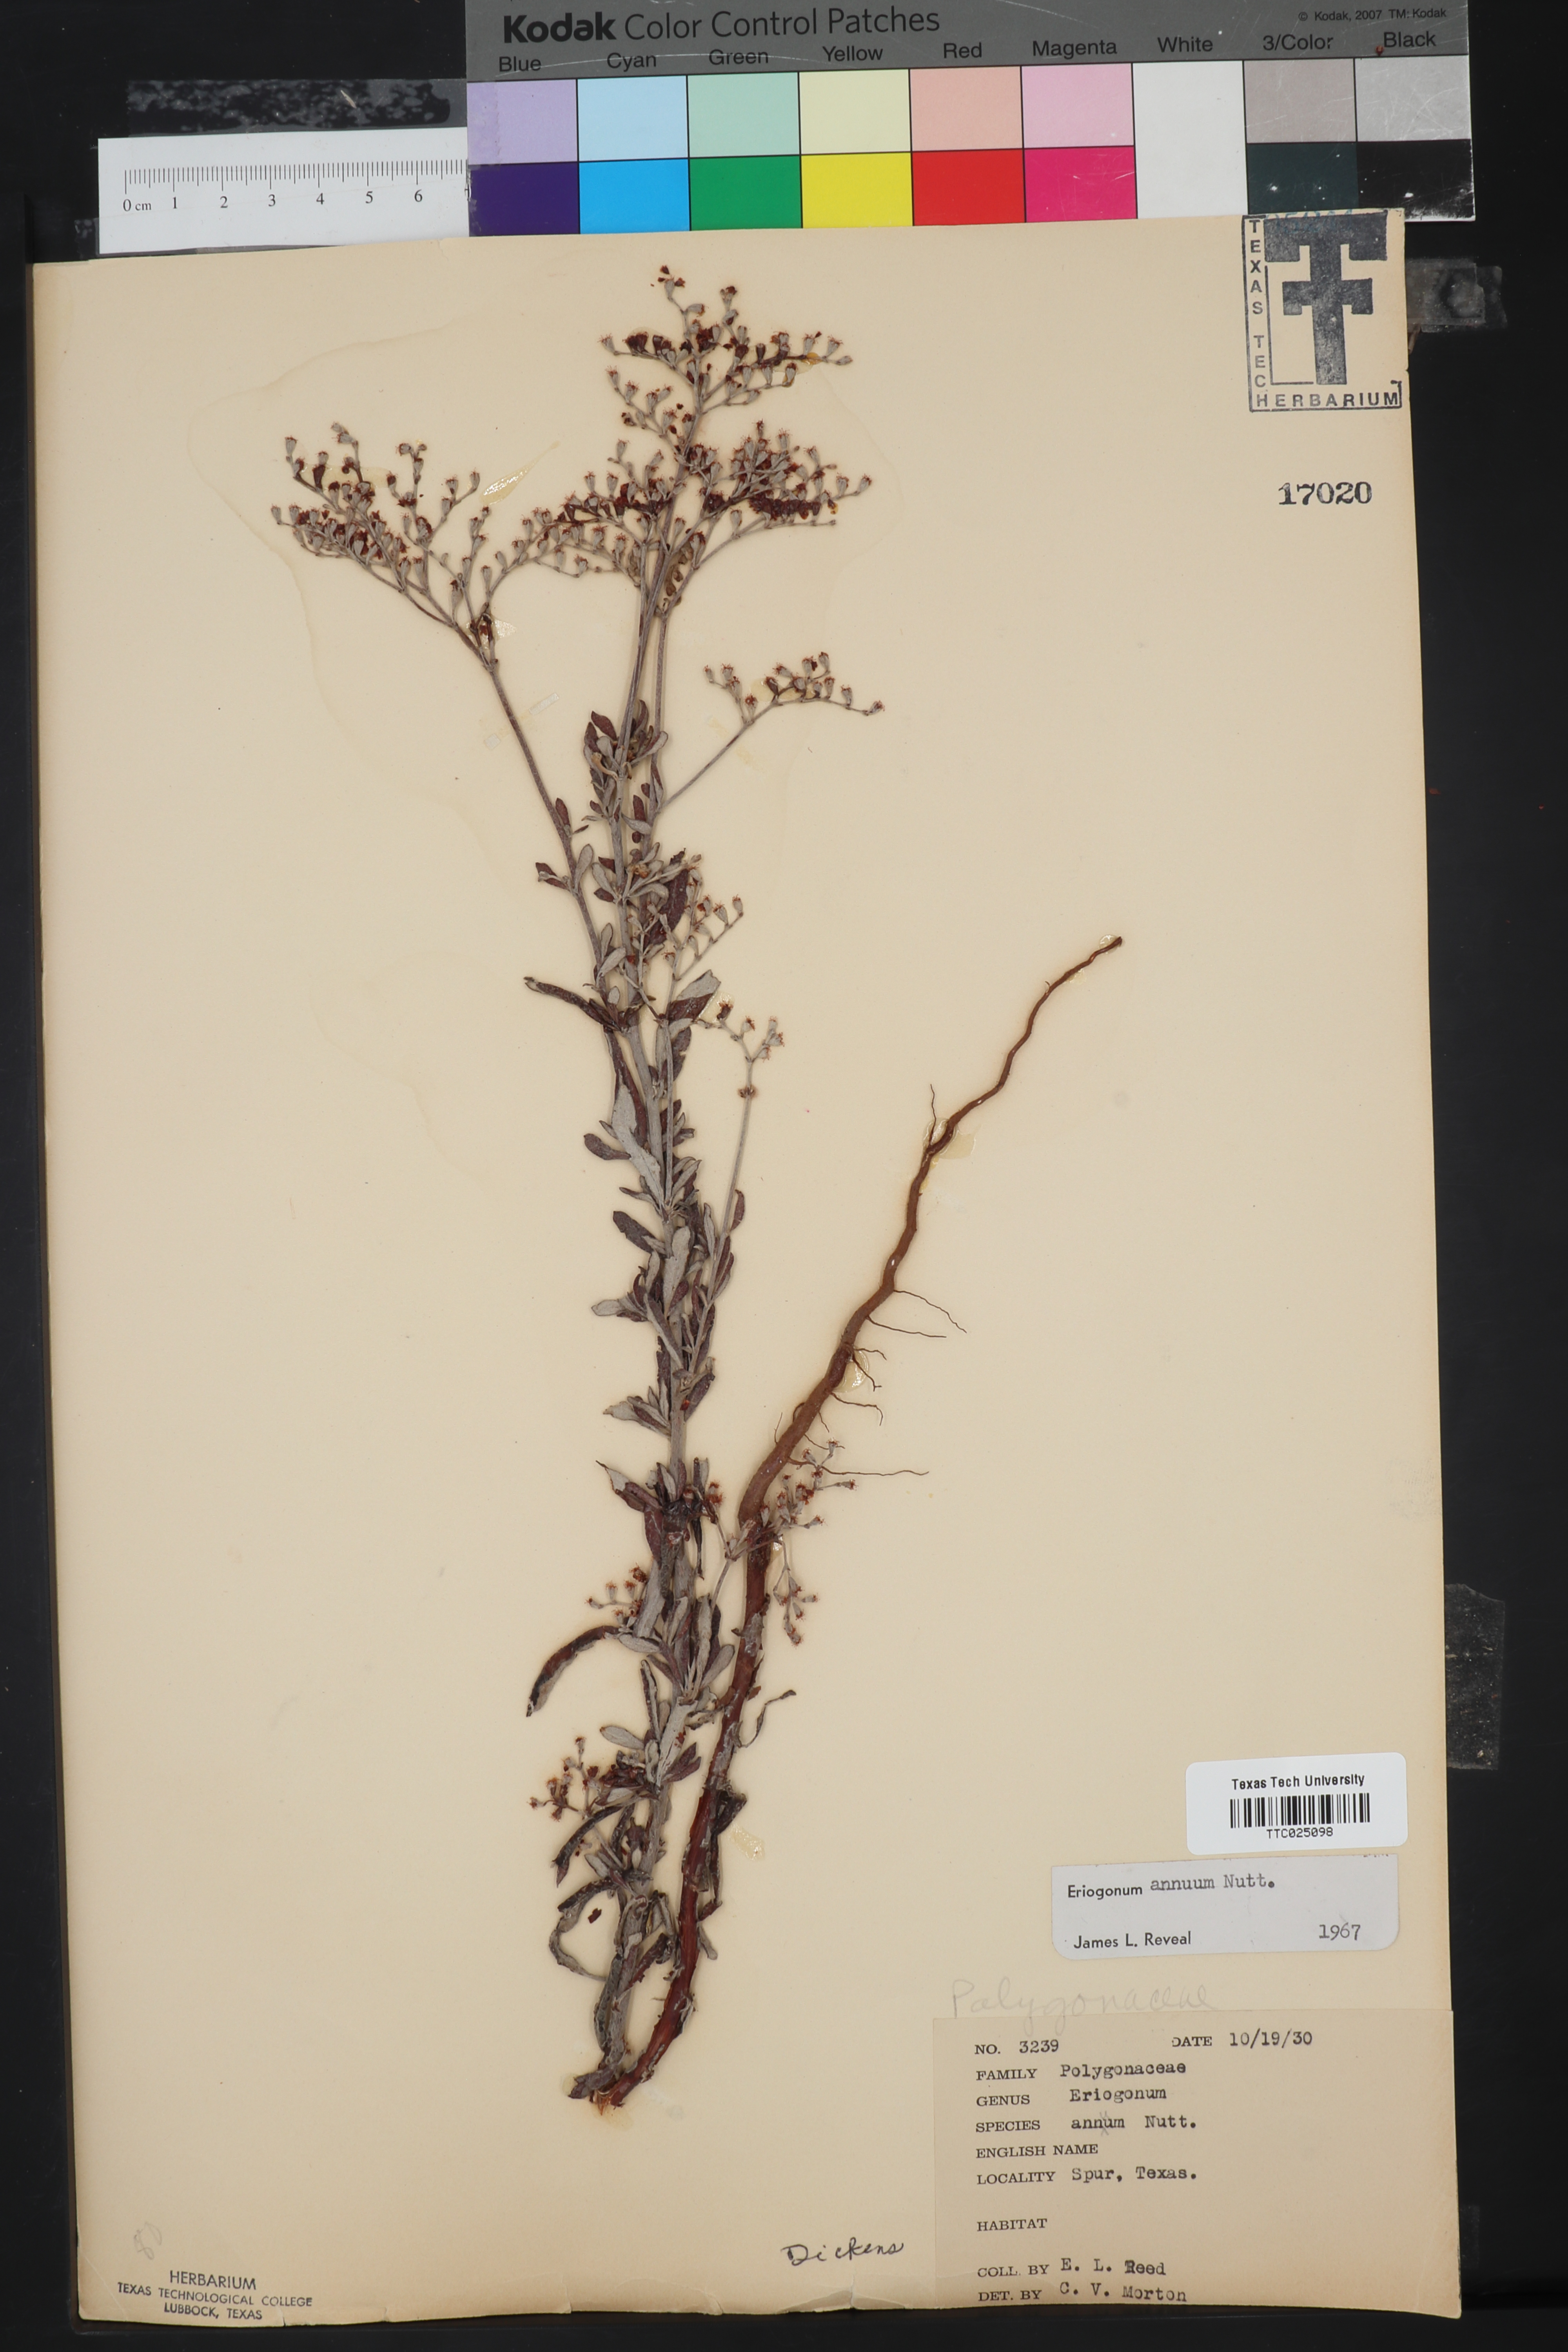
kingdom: Plantae
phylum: Tracheophyta
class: Magnoliopsida
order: Caryophyllales
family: Polygonaceae
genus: Eriogonum
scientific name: Eriogonum annuum
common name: Annual wild buckwheat
